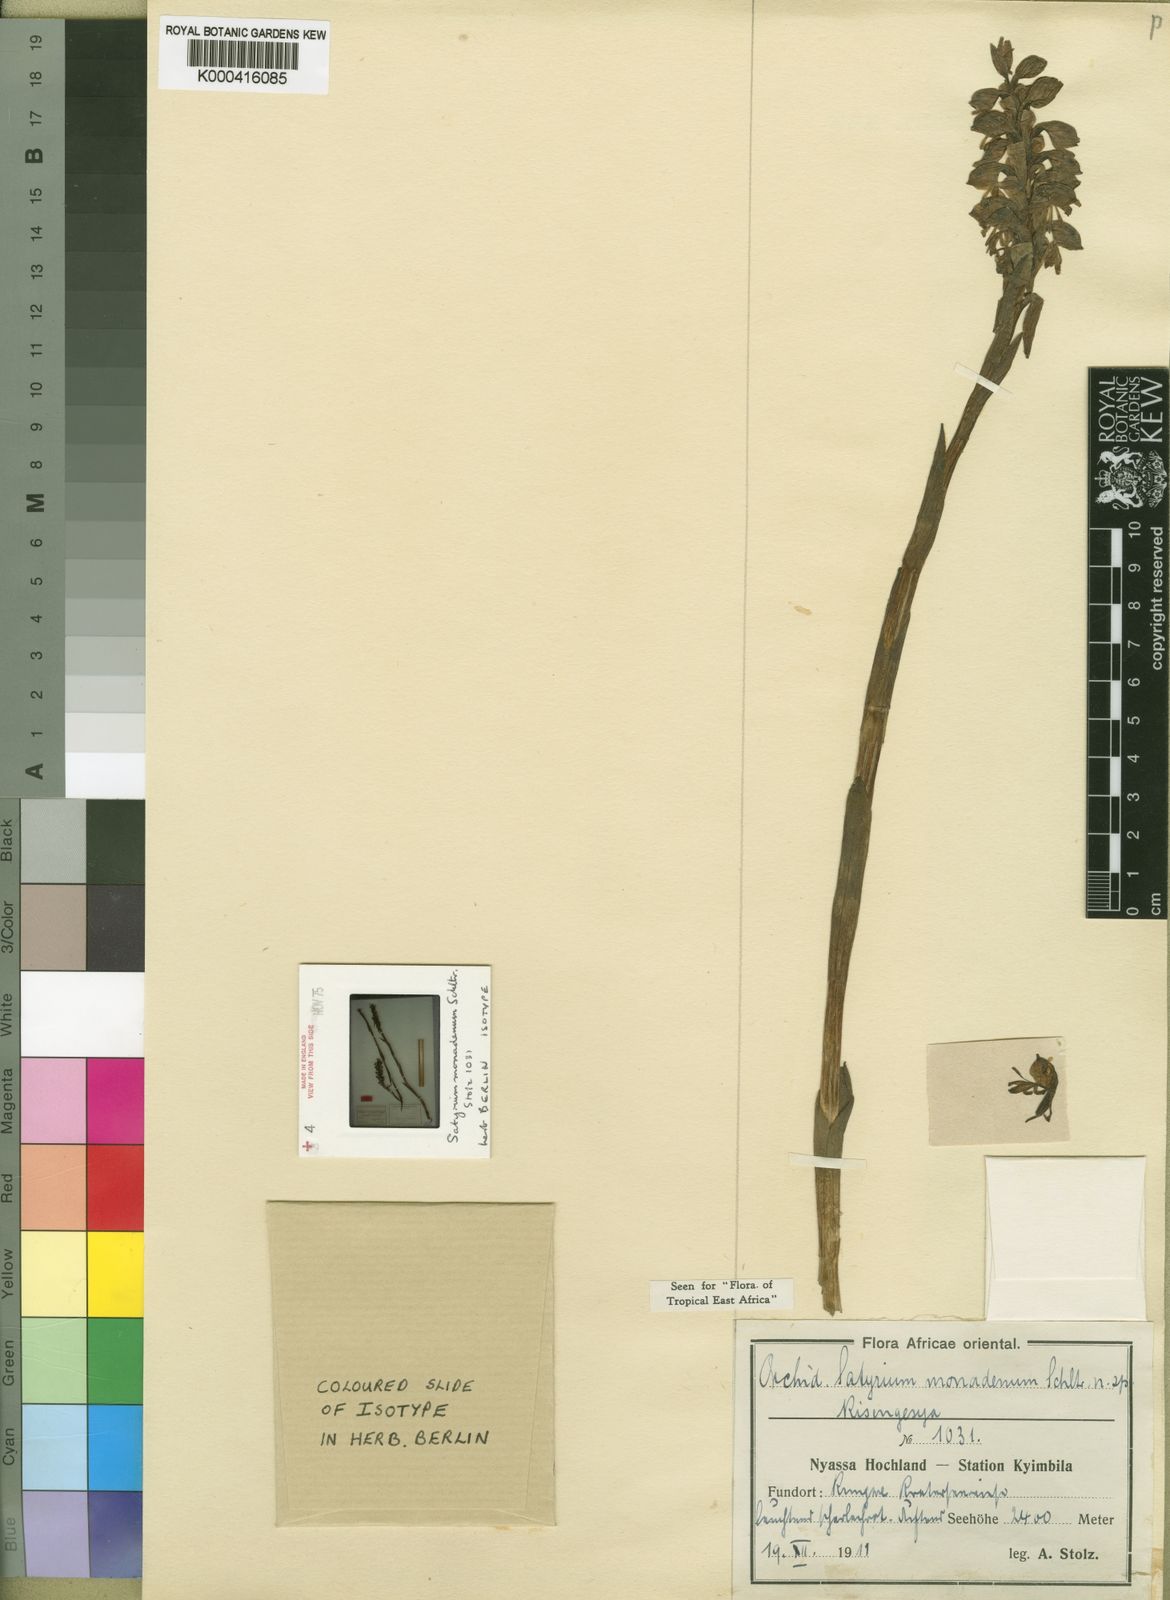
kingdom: Plantae
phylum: Tracheophyta
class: Liliopsida
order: Asparagales
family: Orchidaceae
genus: Satyrium
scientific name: Satyrium monadenum
